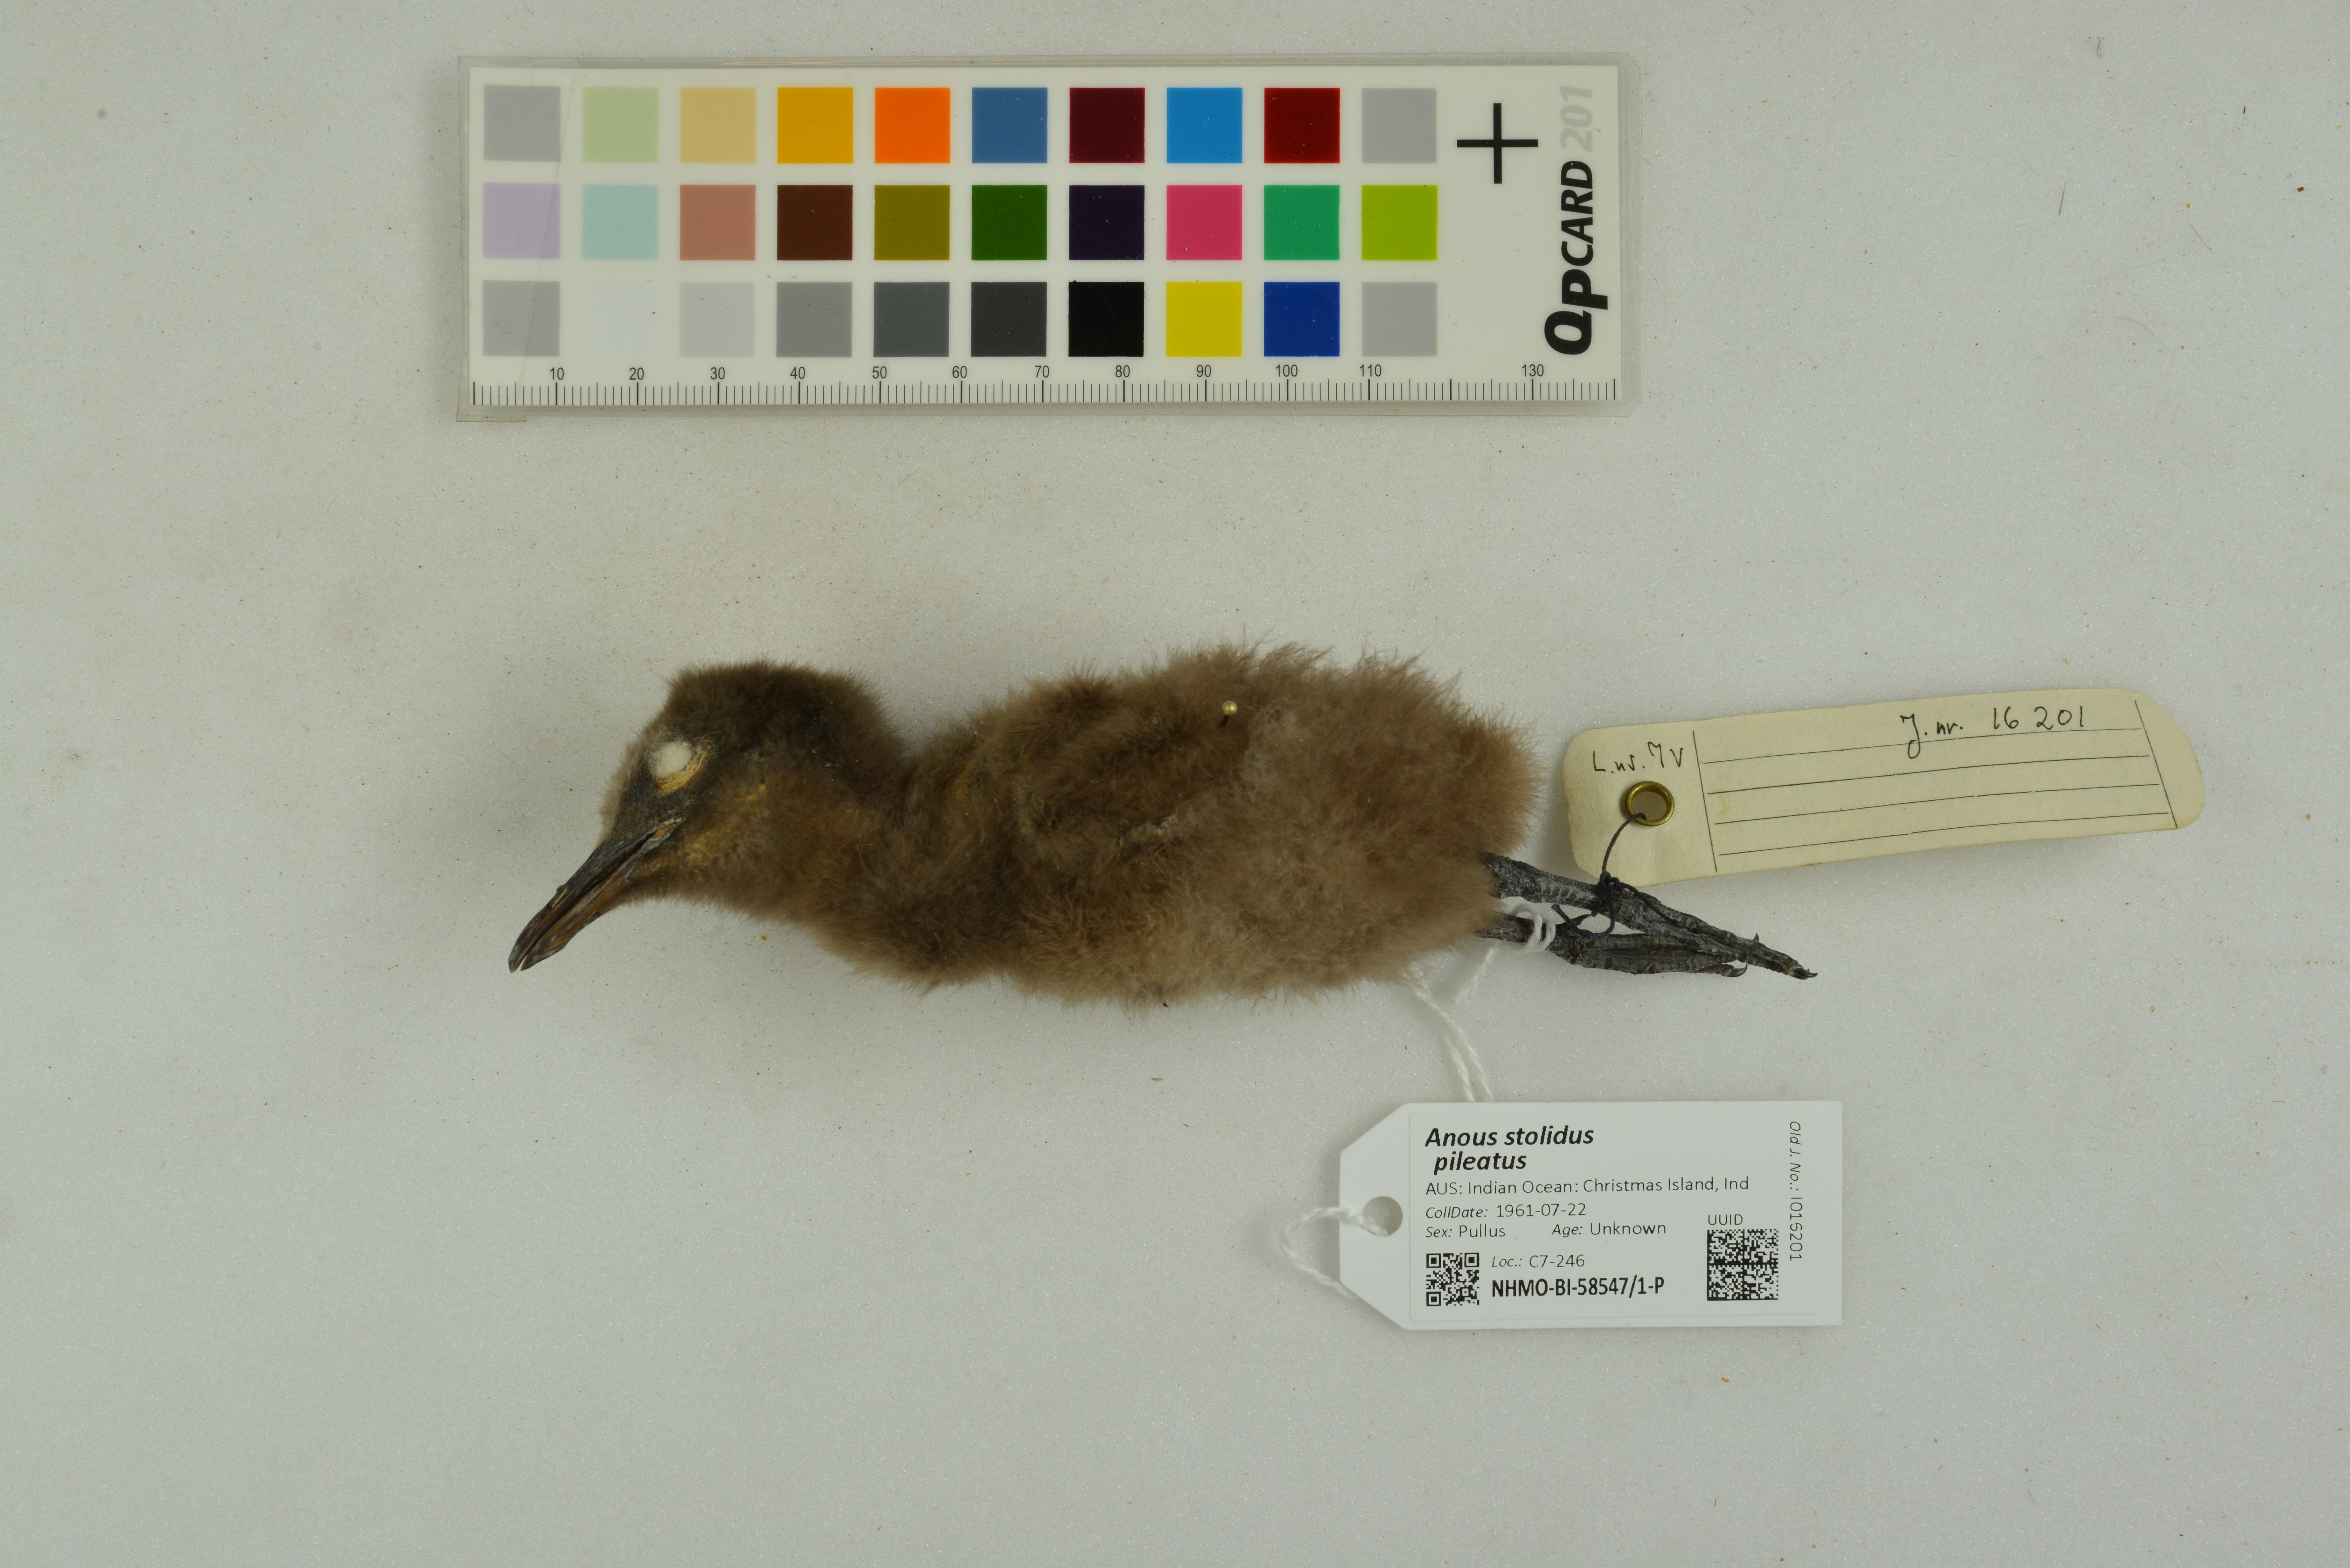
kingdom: Animalia
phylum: Chordata
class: Aves
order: Charadriiformes
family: Laridae
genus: Anous
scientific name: Anous stolidus
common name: Brown noddy
